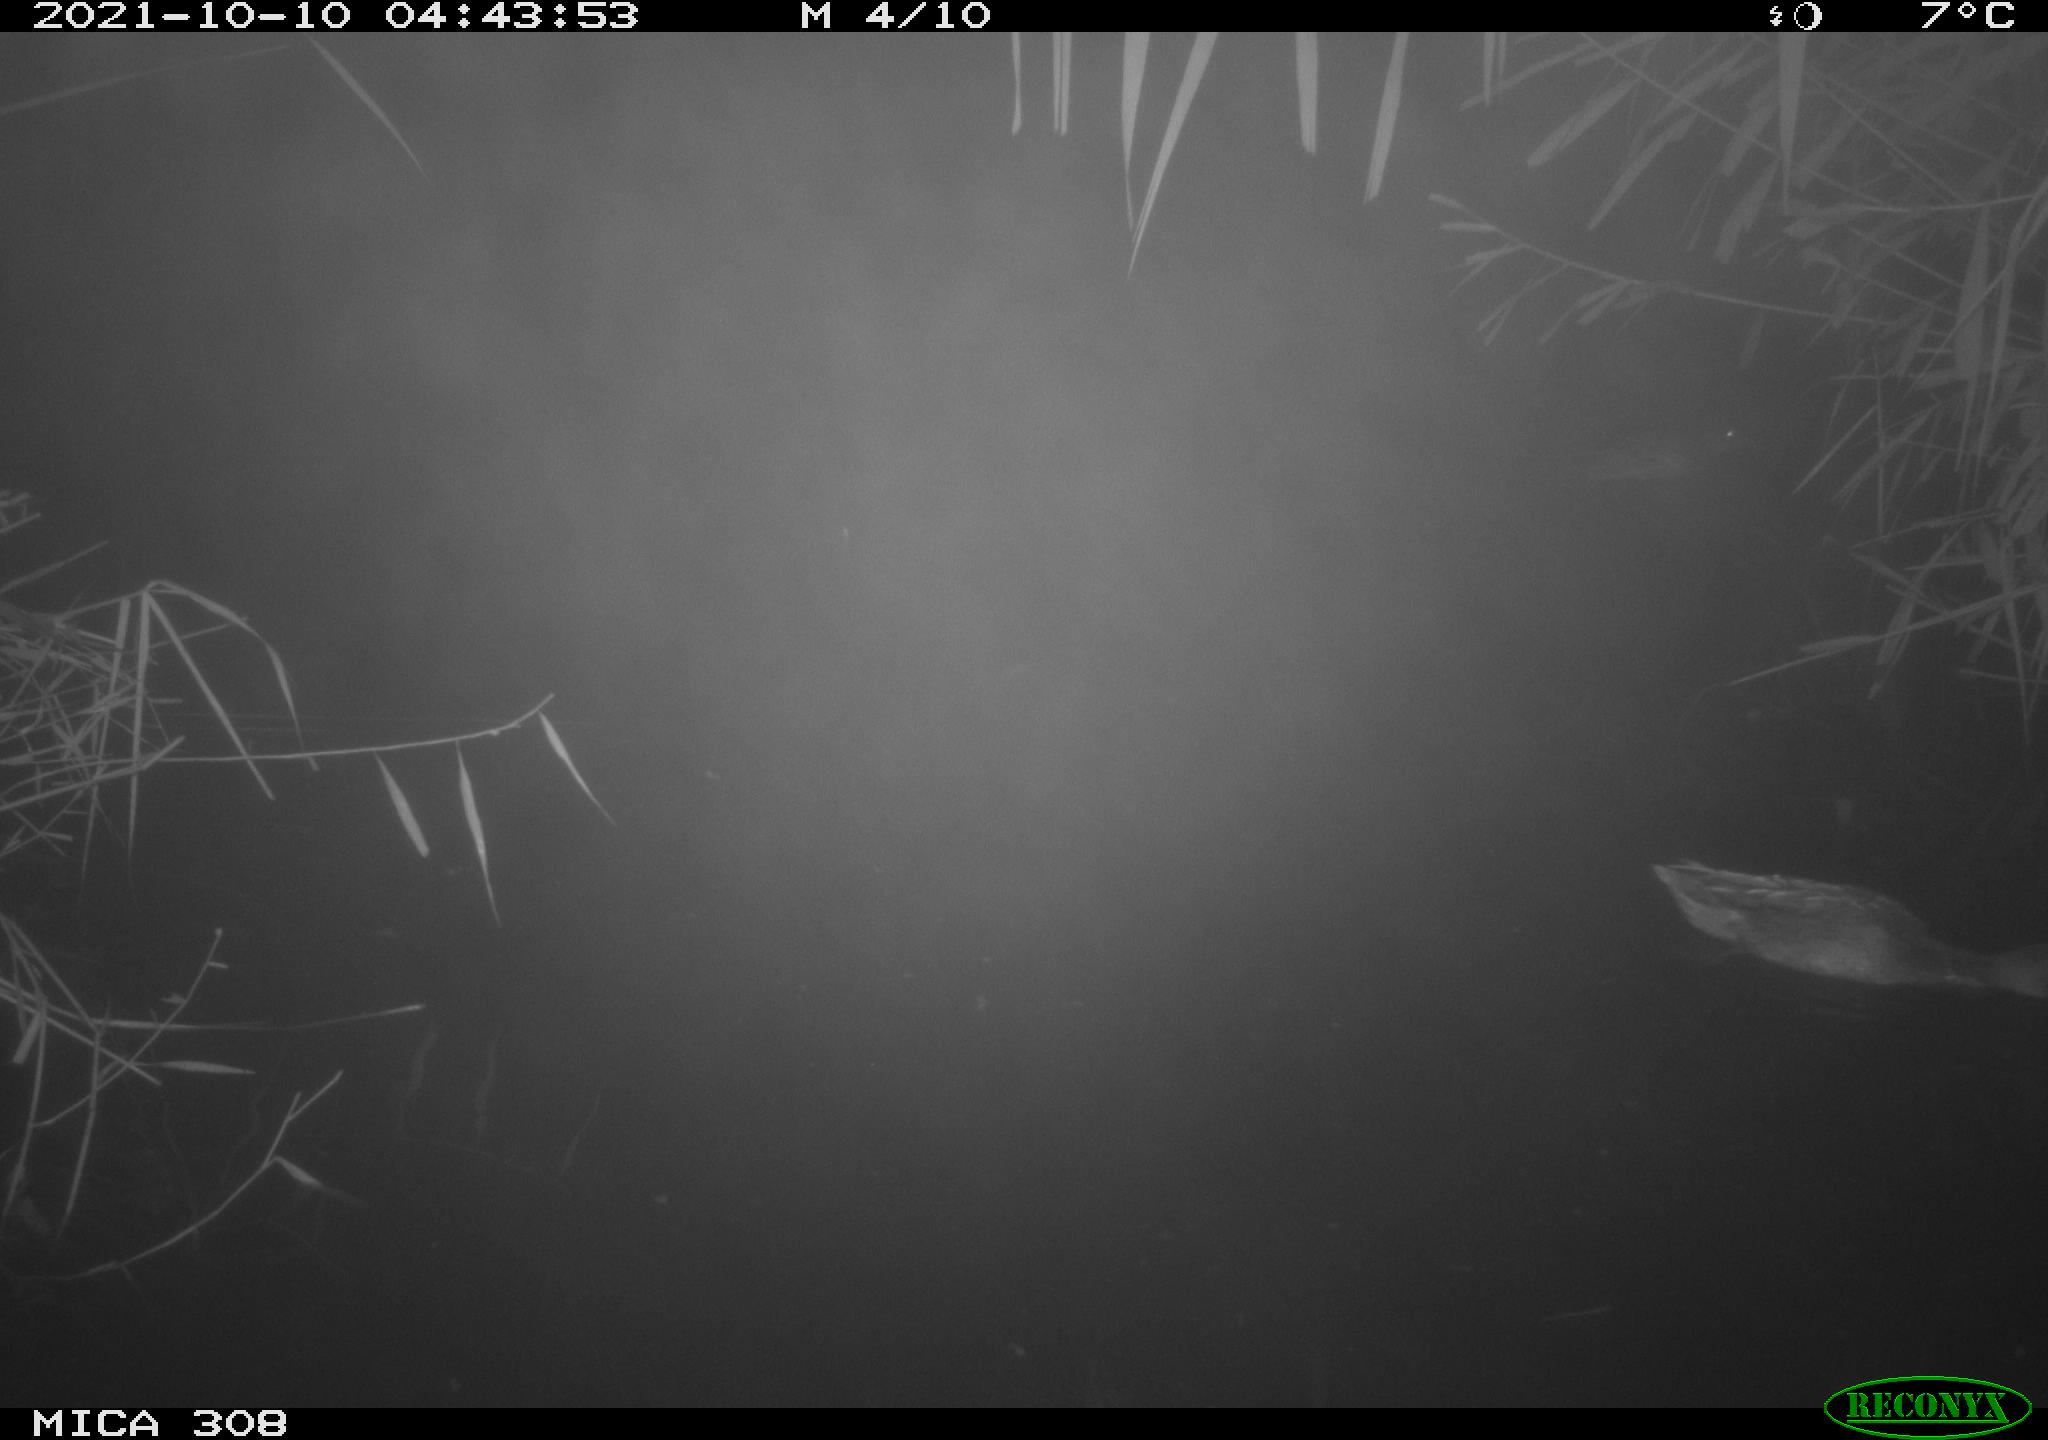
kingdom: Animalia
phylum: Chordata
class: Aves
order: Anseriformes
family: Anatidae
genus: Spatula
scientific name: Spatula clypeata
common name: Northern shoveler
